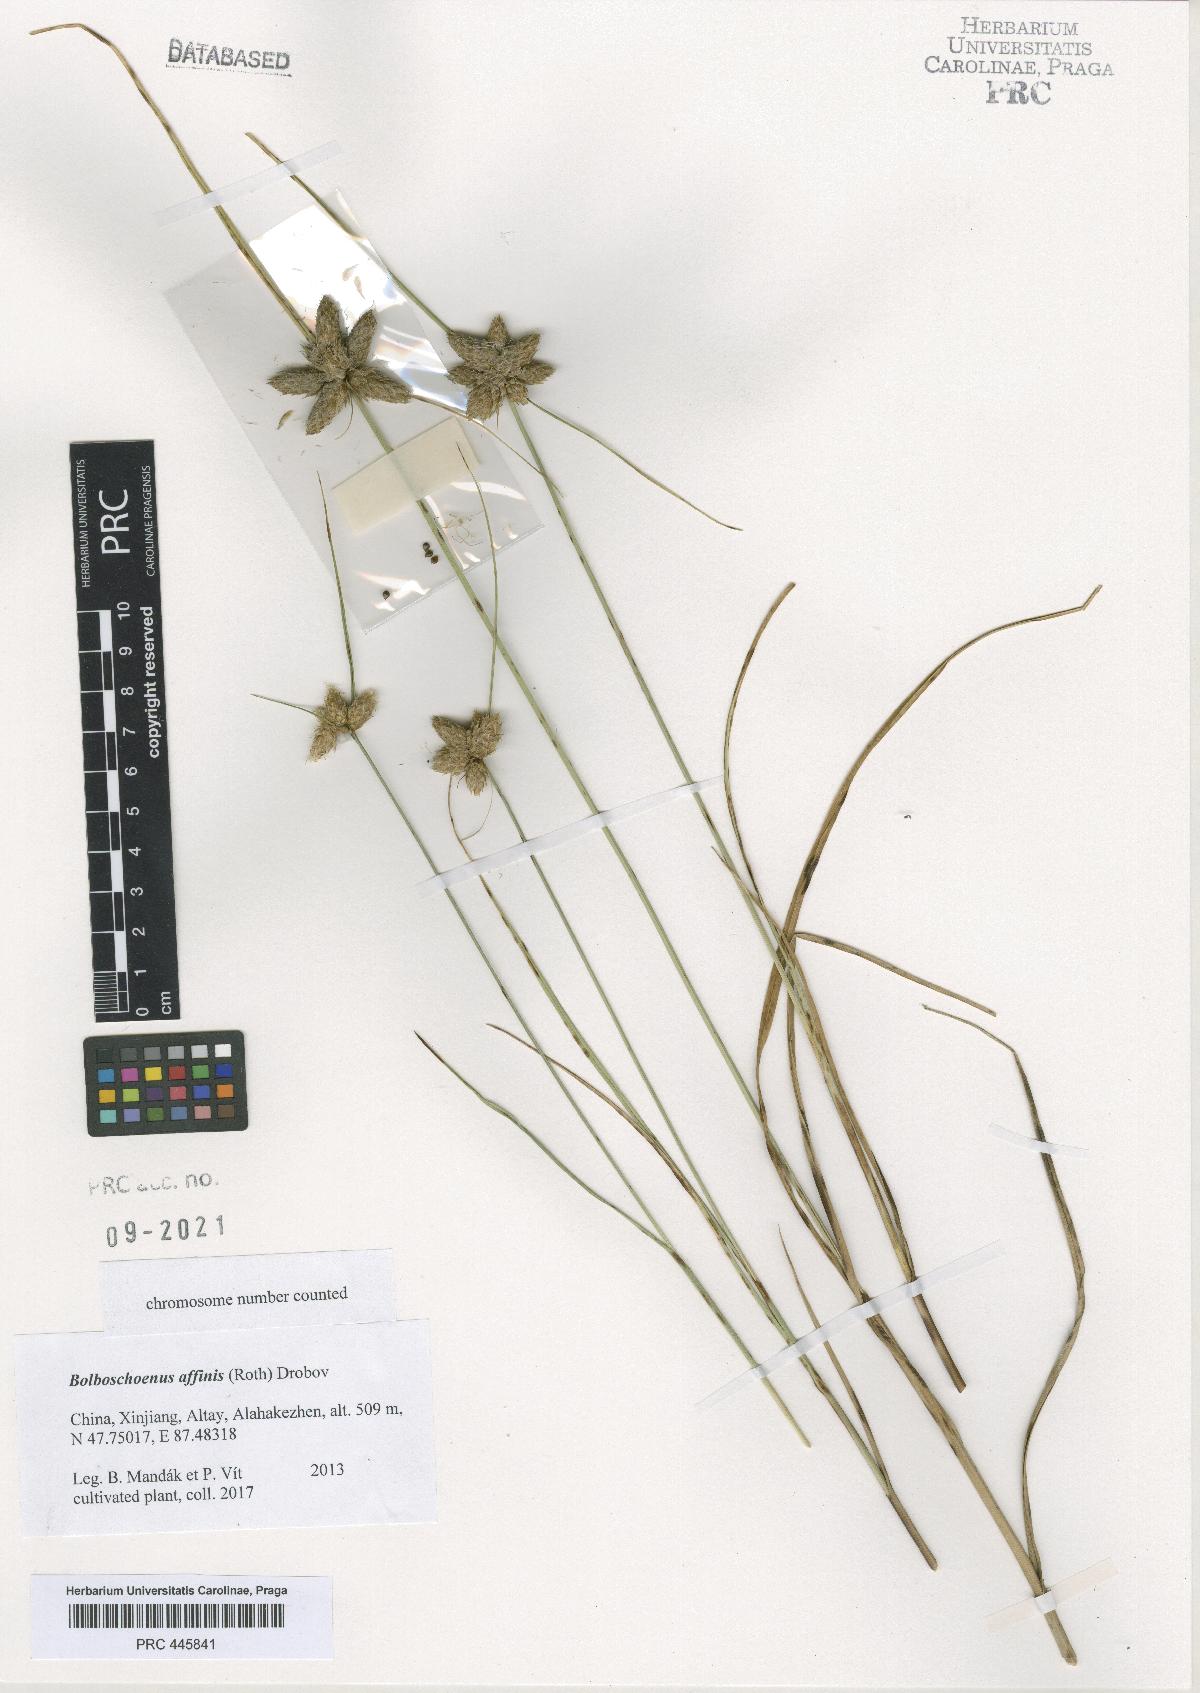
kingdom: Plantae
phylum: Tracheophyta
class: Liliopsida
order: Poales
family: Cyperaceae
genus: Bolboschoenus
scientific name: Bolboschoenus maritimus
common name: Sea club-rush
